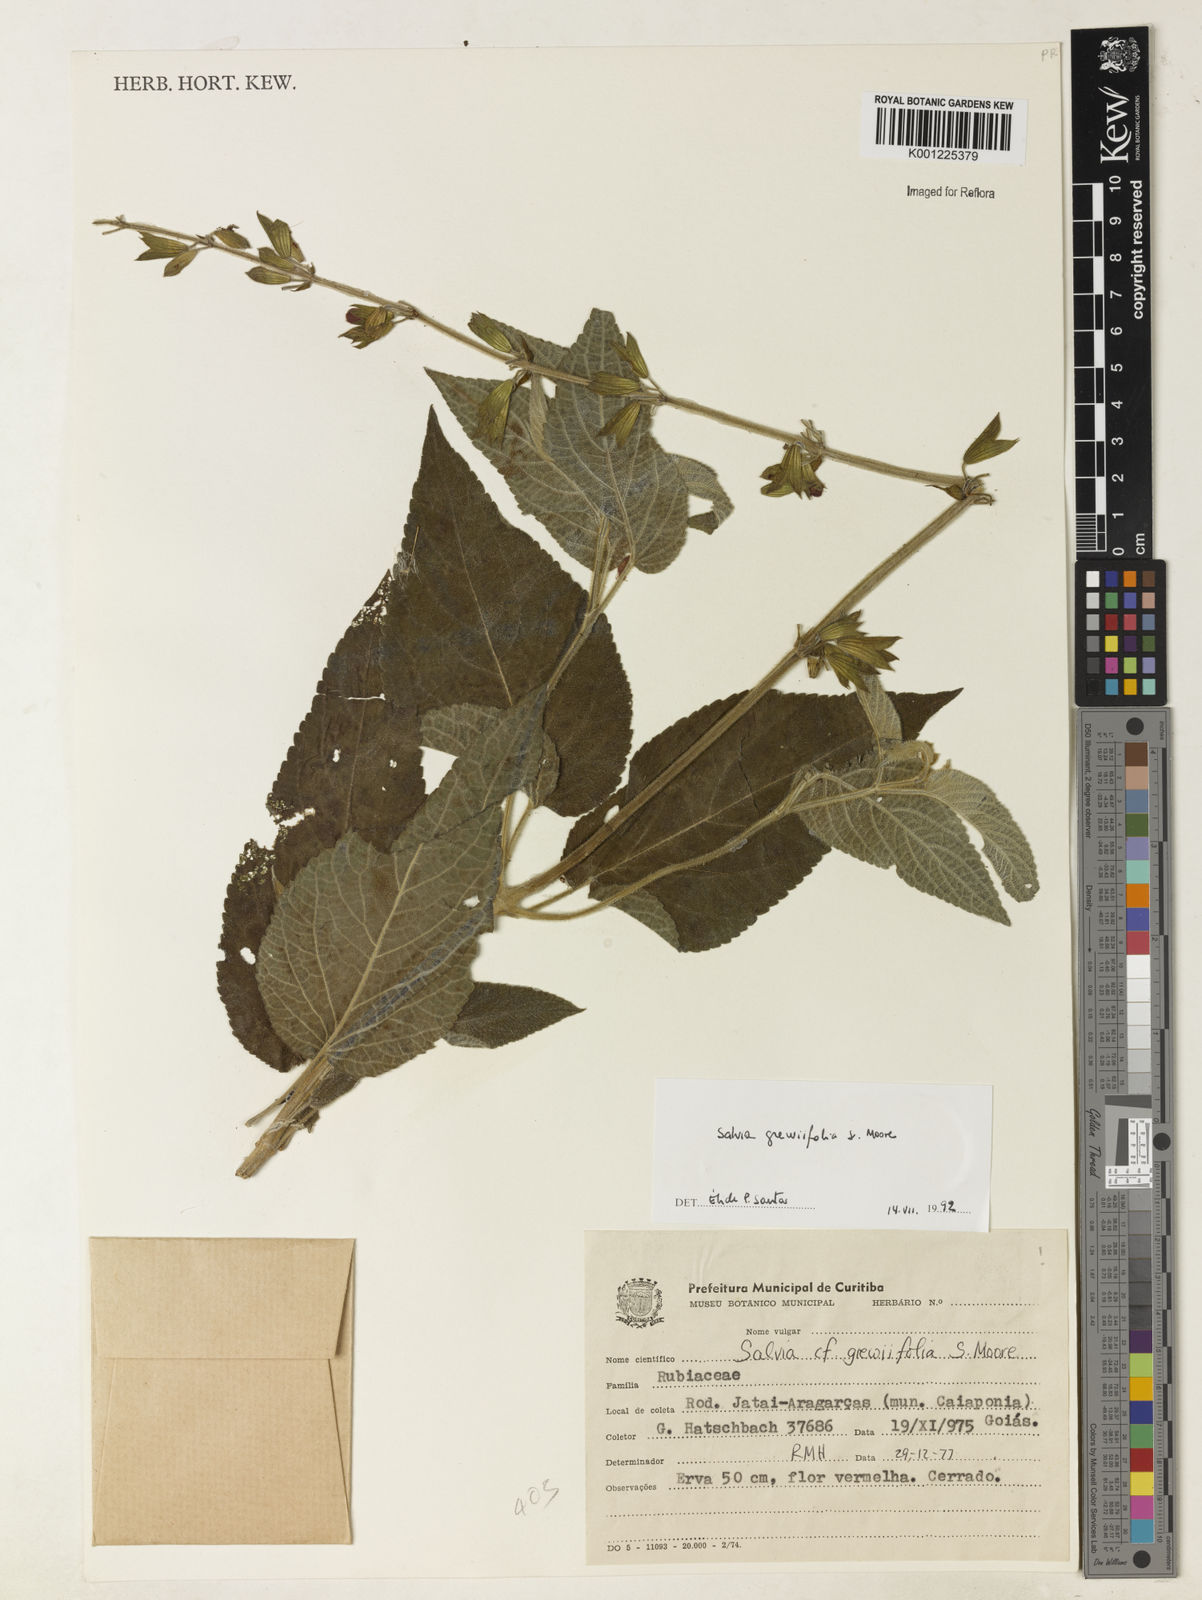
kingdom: Plantae
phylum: Tracheophyta
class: Magnoliopsida
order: Lamiales
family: Lamiaceae
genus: Salvia
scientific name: Salvia grewiifolia
